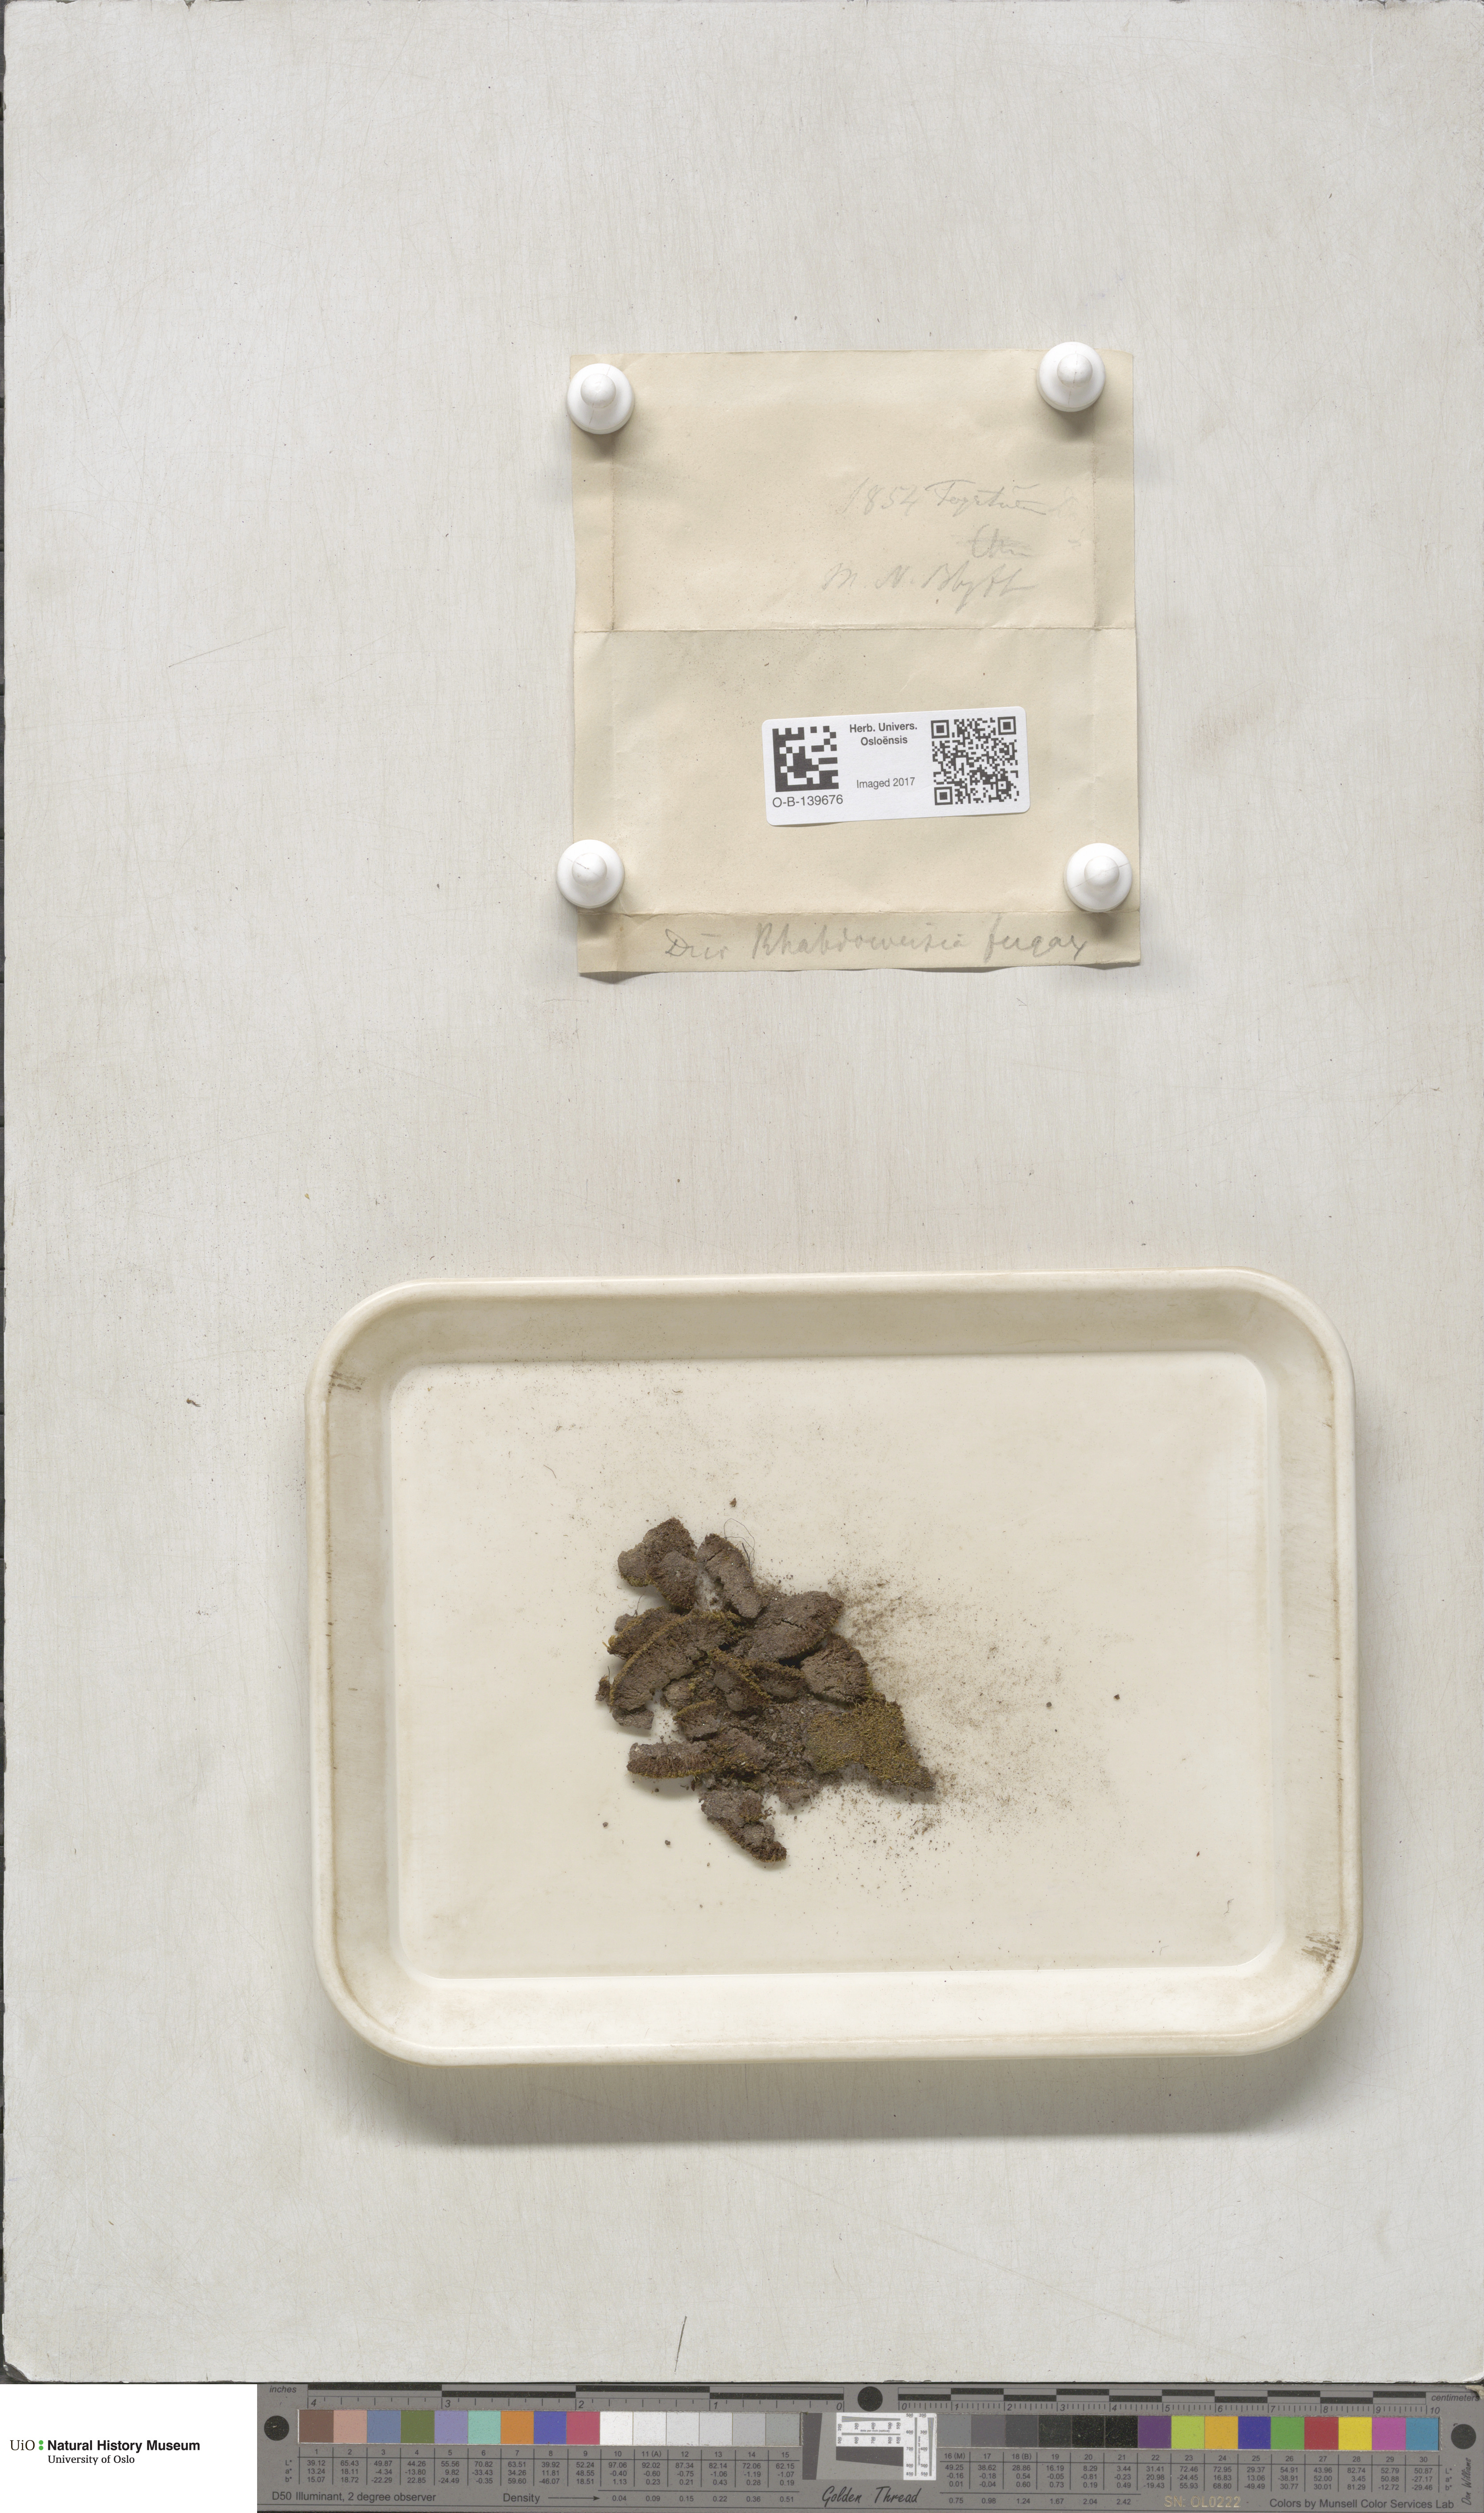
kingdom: Plantae
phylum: Bryophyta
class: Bryopsida
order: Dicranales
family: Rhabdoweisiaceae
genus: Rhabdoweisia
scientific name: Rhabdoweisia fugax
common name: Dwarf streak-moss
